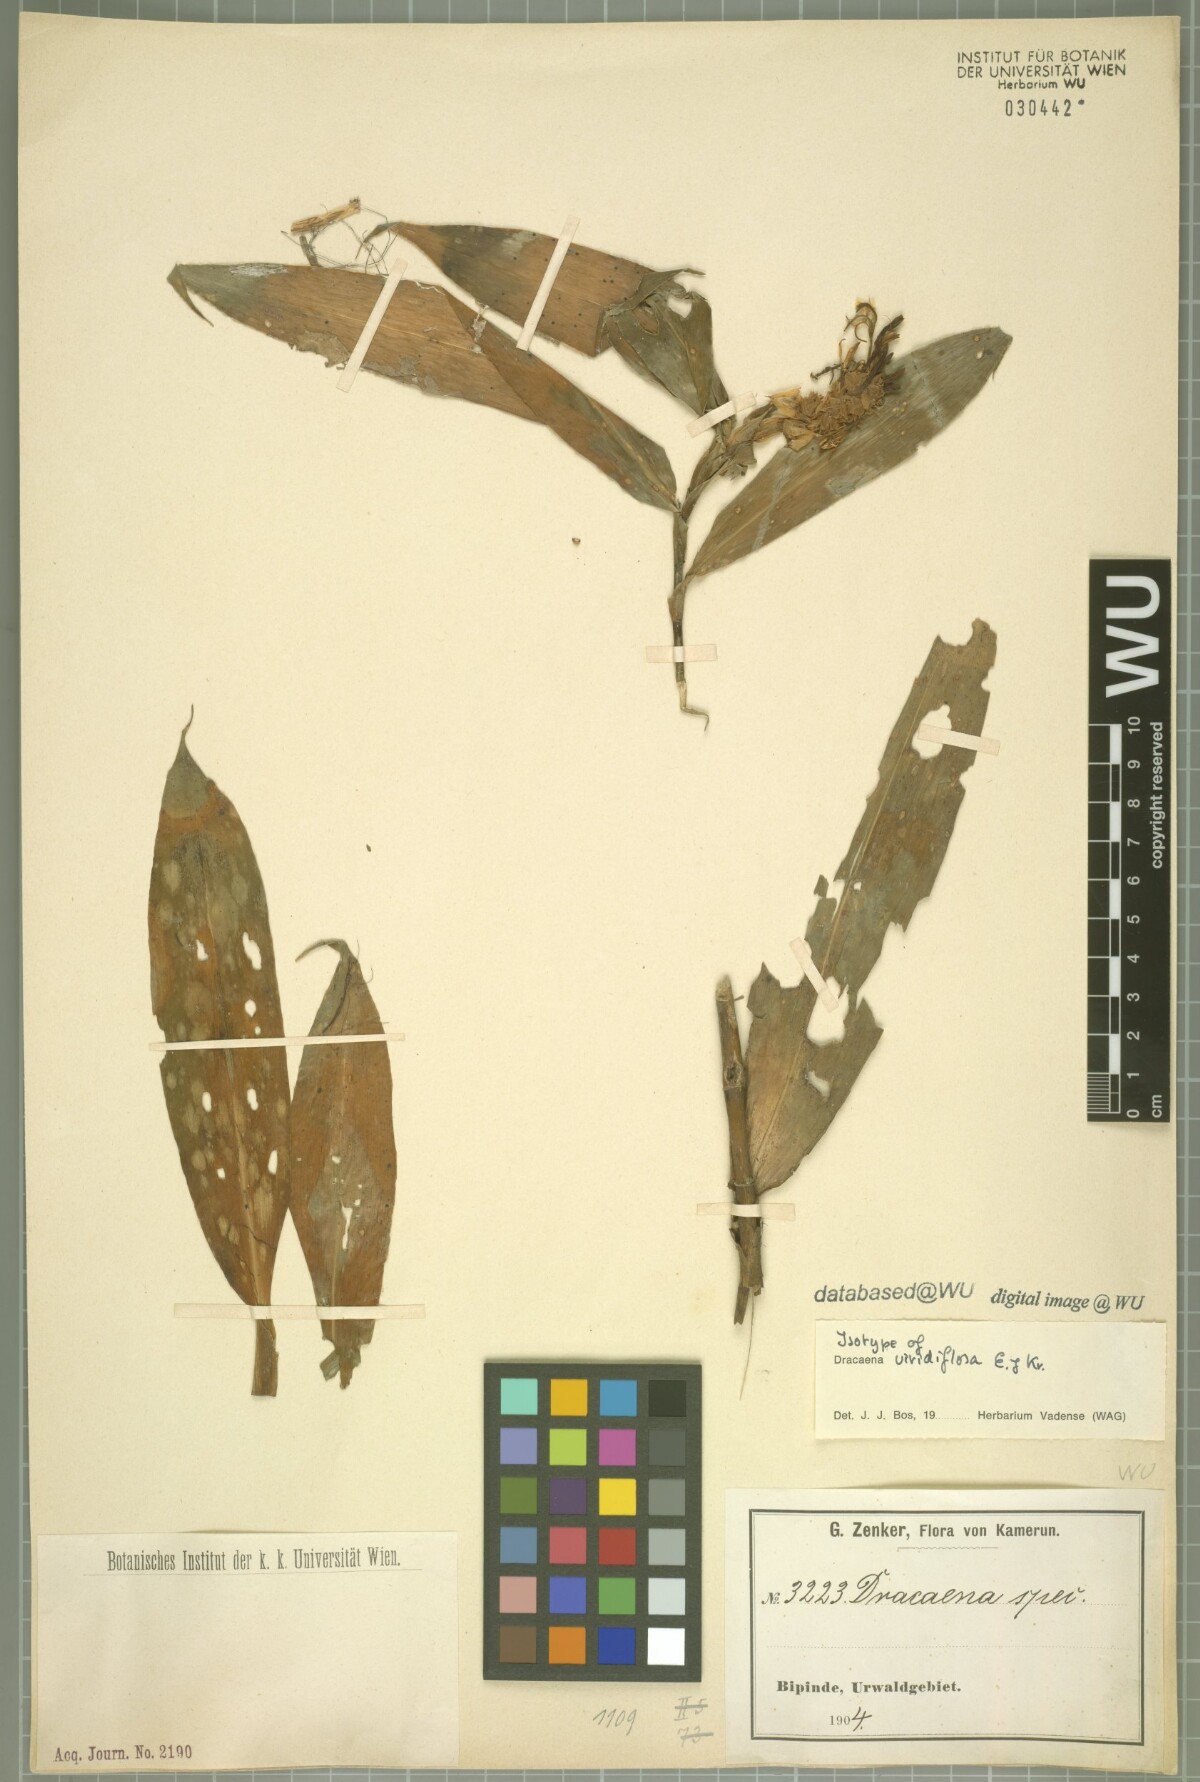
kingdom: Plantae
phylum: Tracheophyta
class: Liliopsida
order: Asparagales
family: Asparagaceae
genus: Dracaena
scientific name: Dracaena viridiflora
